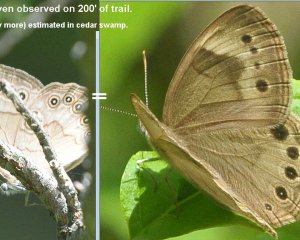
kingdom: Animalia
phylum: Arthropoda
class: Insecta
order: Lepidoptera
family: Nymphalidae
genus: Lethe
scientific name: Lethe eurydice
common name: Appalachian Eyed Brown
